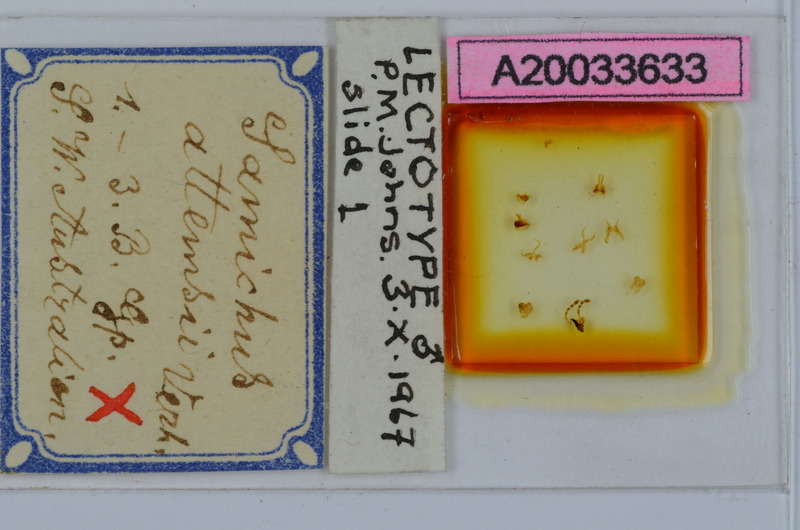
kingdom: Animalia
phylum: Arthropoda
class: Diplopoda
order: Spirostreptida
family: Iulomorphidae
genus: Samichus
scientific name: Samichus attemsii
